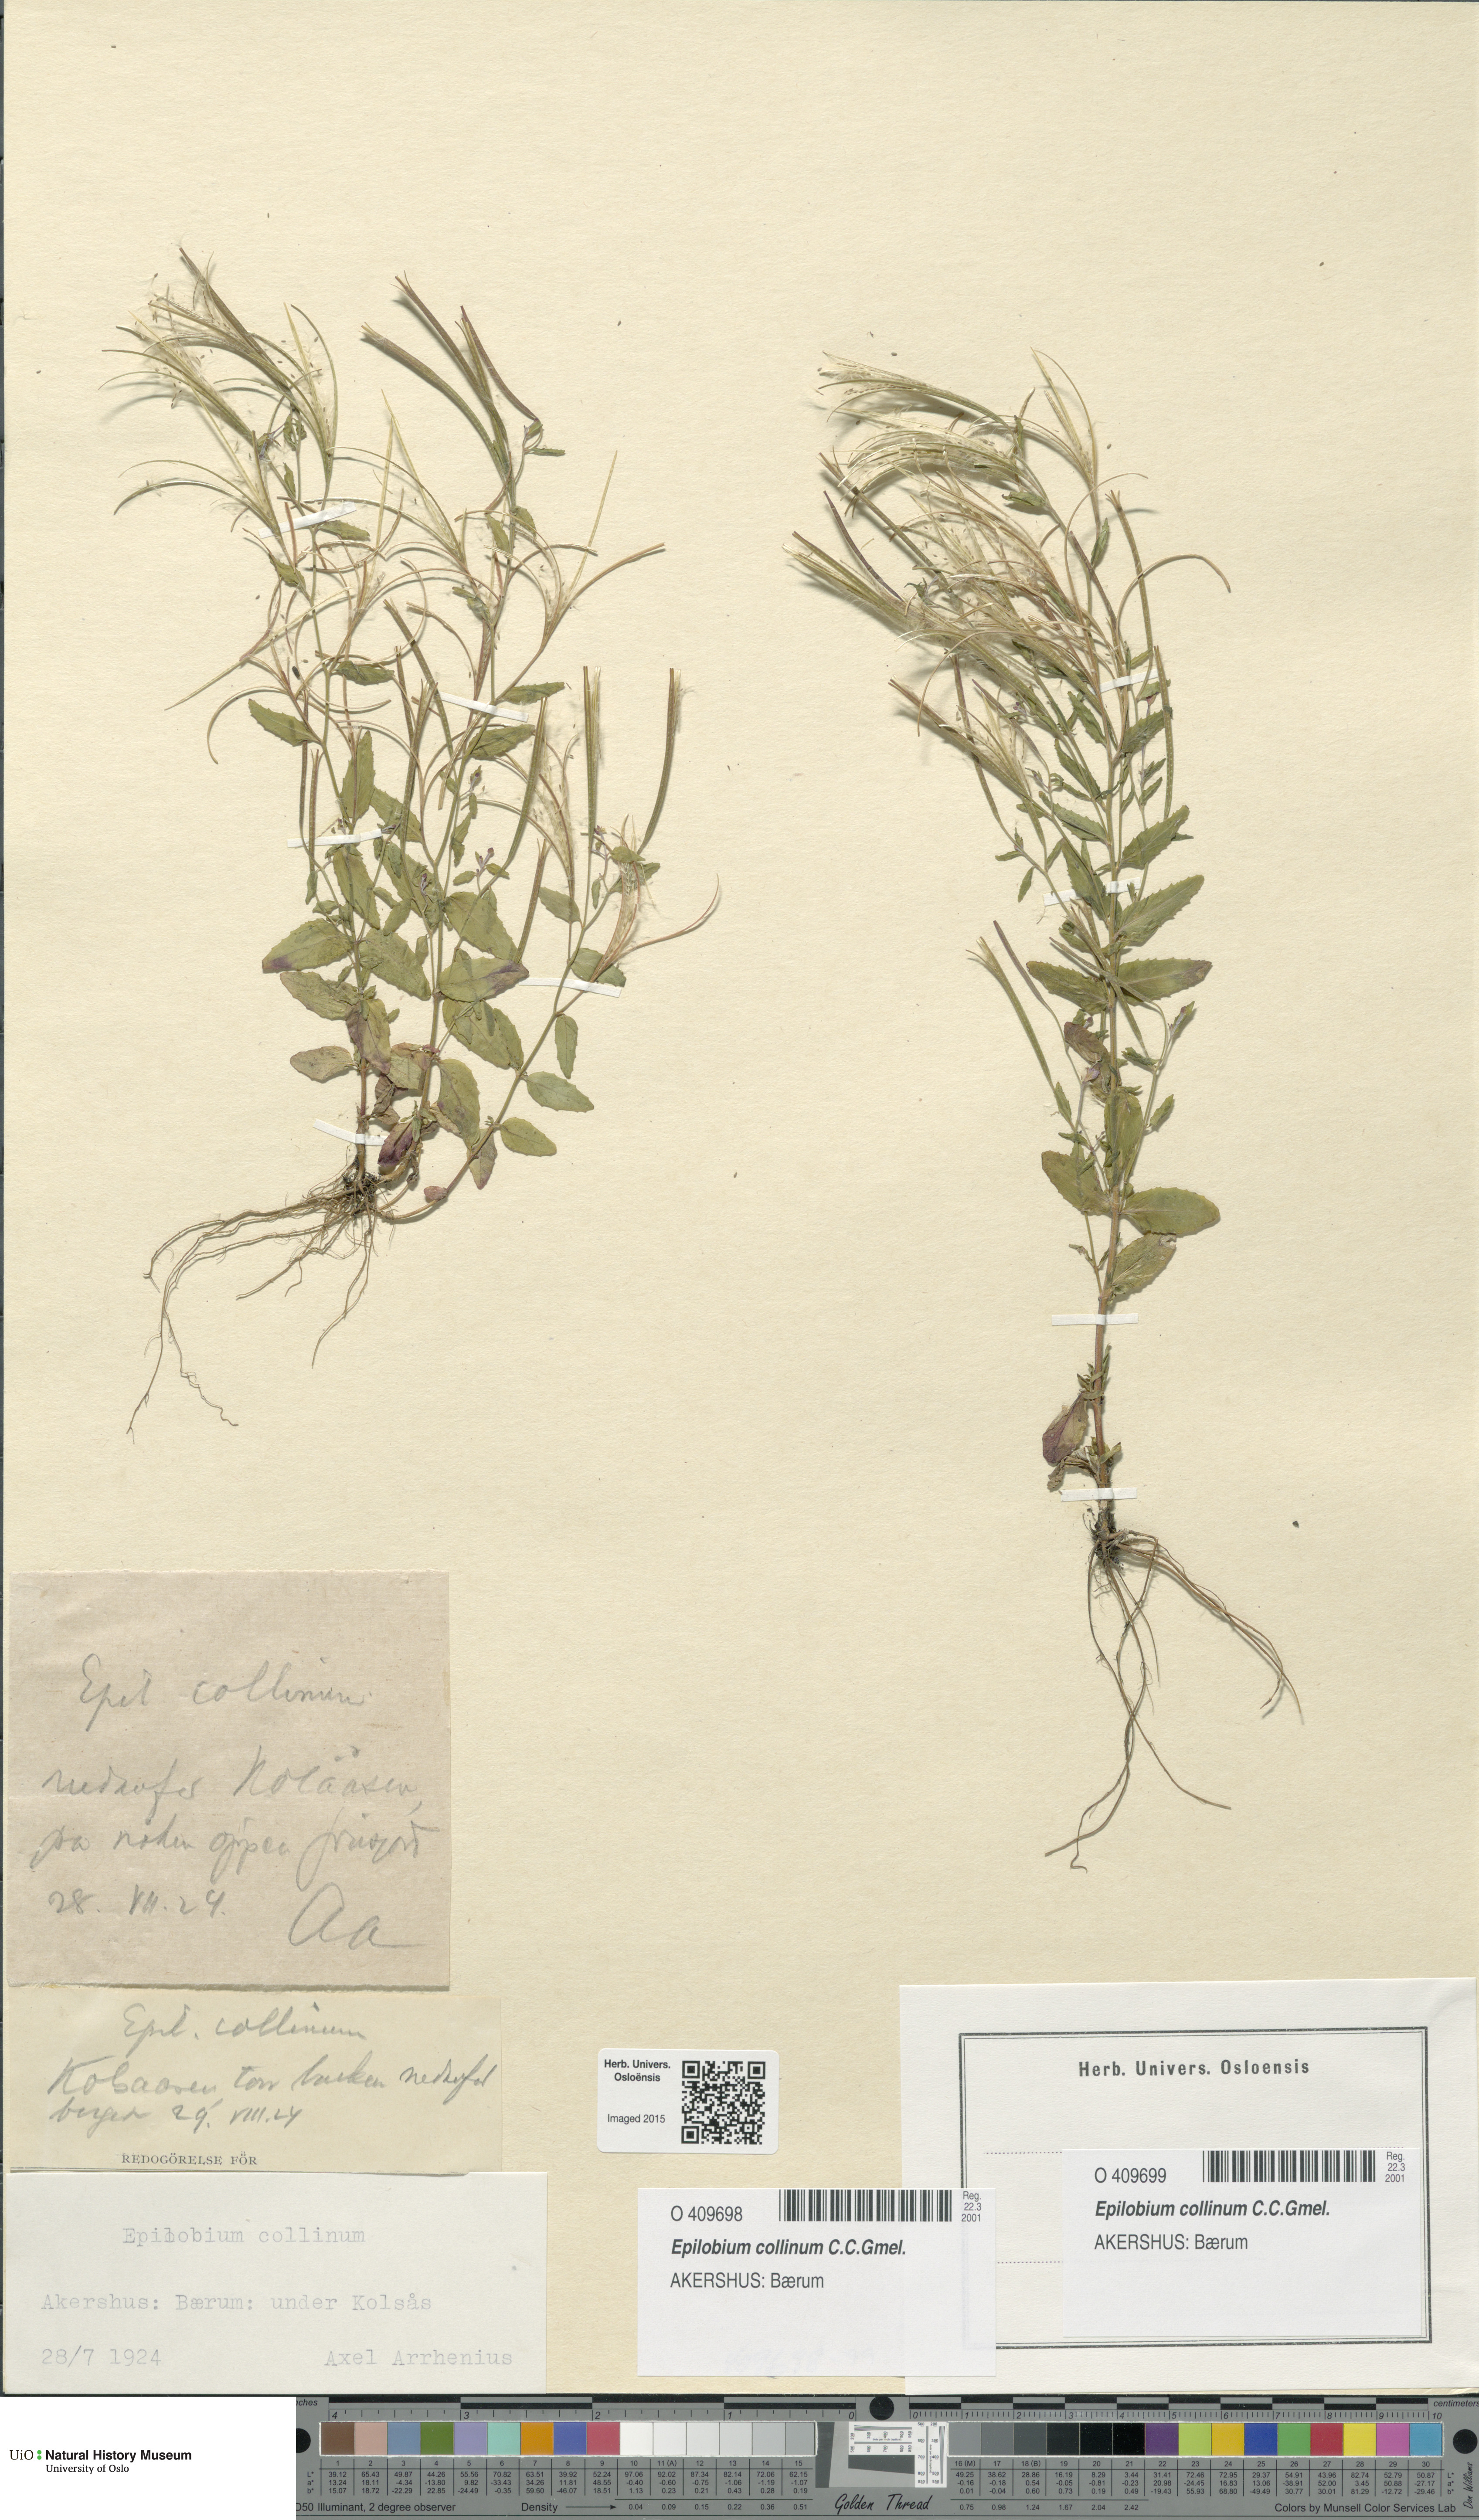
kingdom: Plantae
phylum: Tracheophyta
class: Magnoliopsida
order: Myrtales
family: Onagraceae
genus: Epilobium
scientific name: Epilobium collinum
